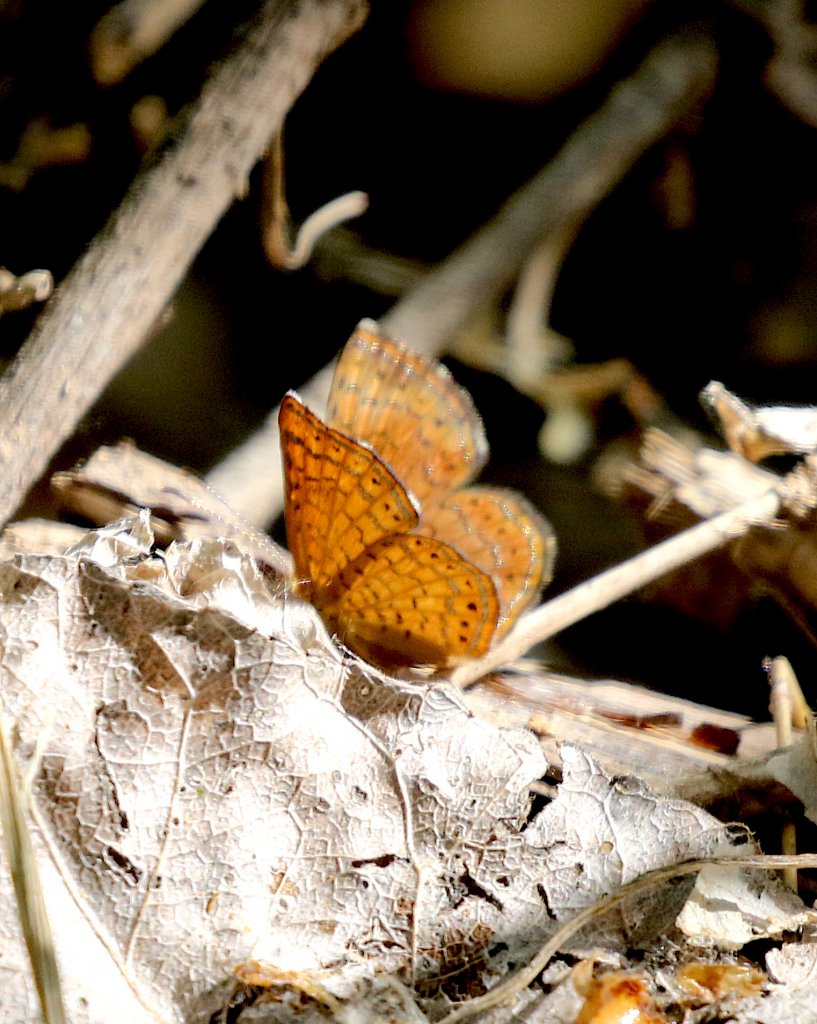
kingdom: Animalia
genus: Calephelis
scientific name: Calephelis nemesis
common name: Fatal Metalmark
